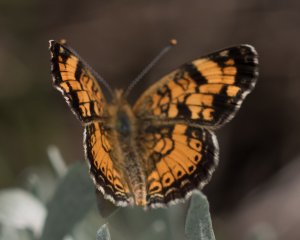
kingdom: Animalia
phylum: Arthropoda
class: Insecta
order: Lepidoptera
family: Nymphalidae
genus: Phyciodes
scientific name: Phyciodes tharos
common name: Pearl Crescent
